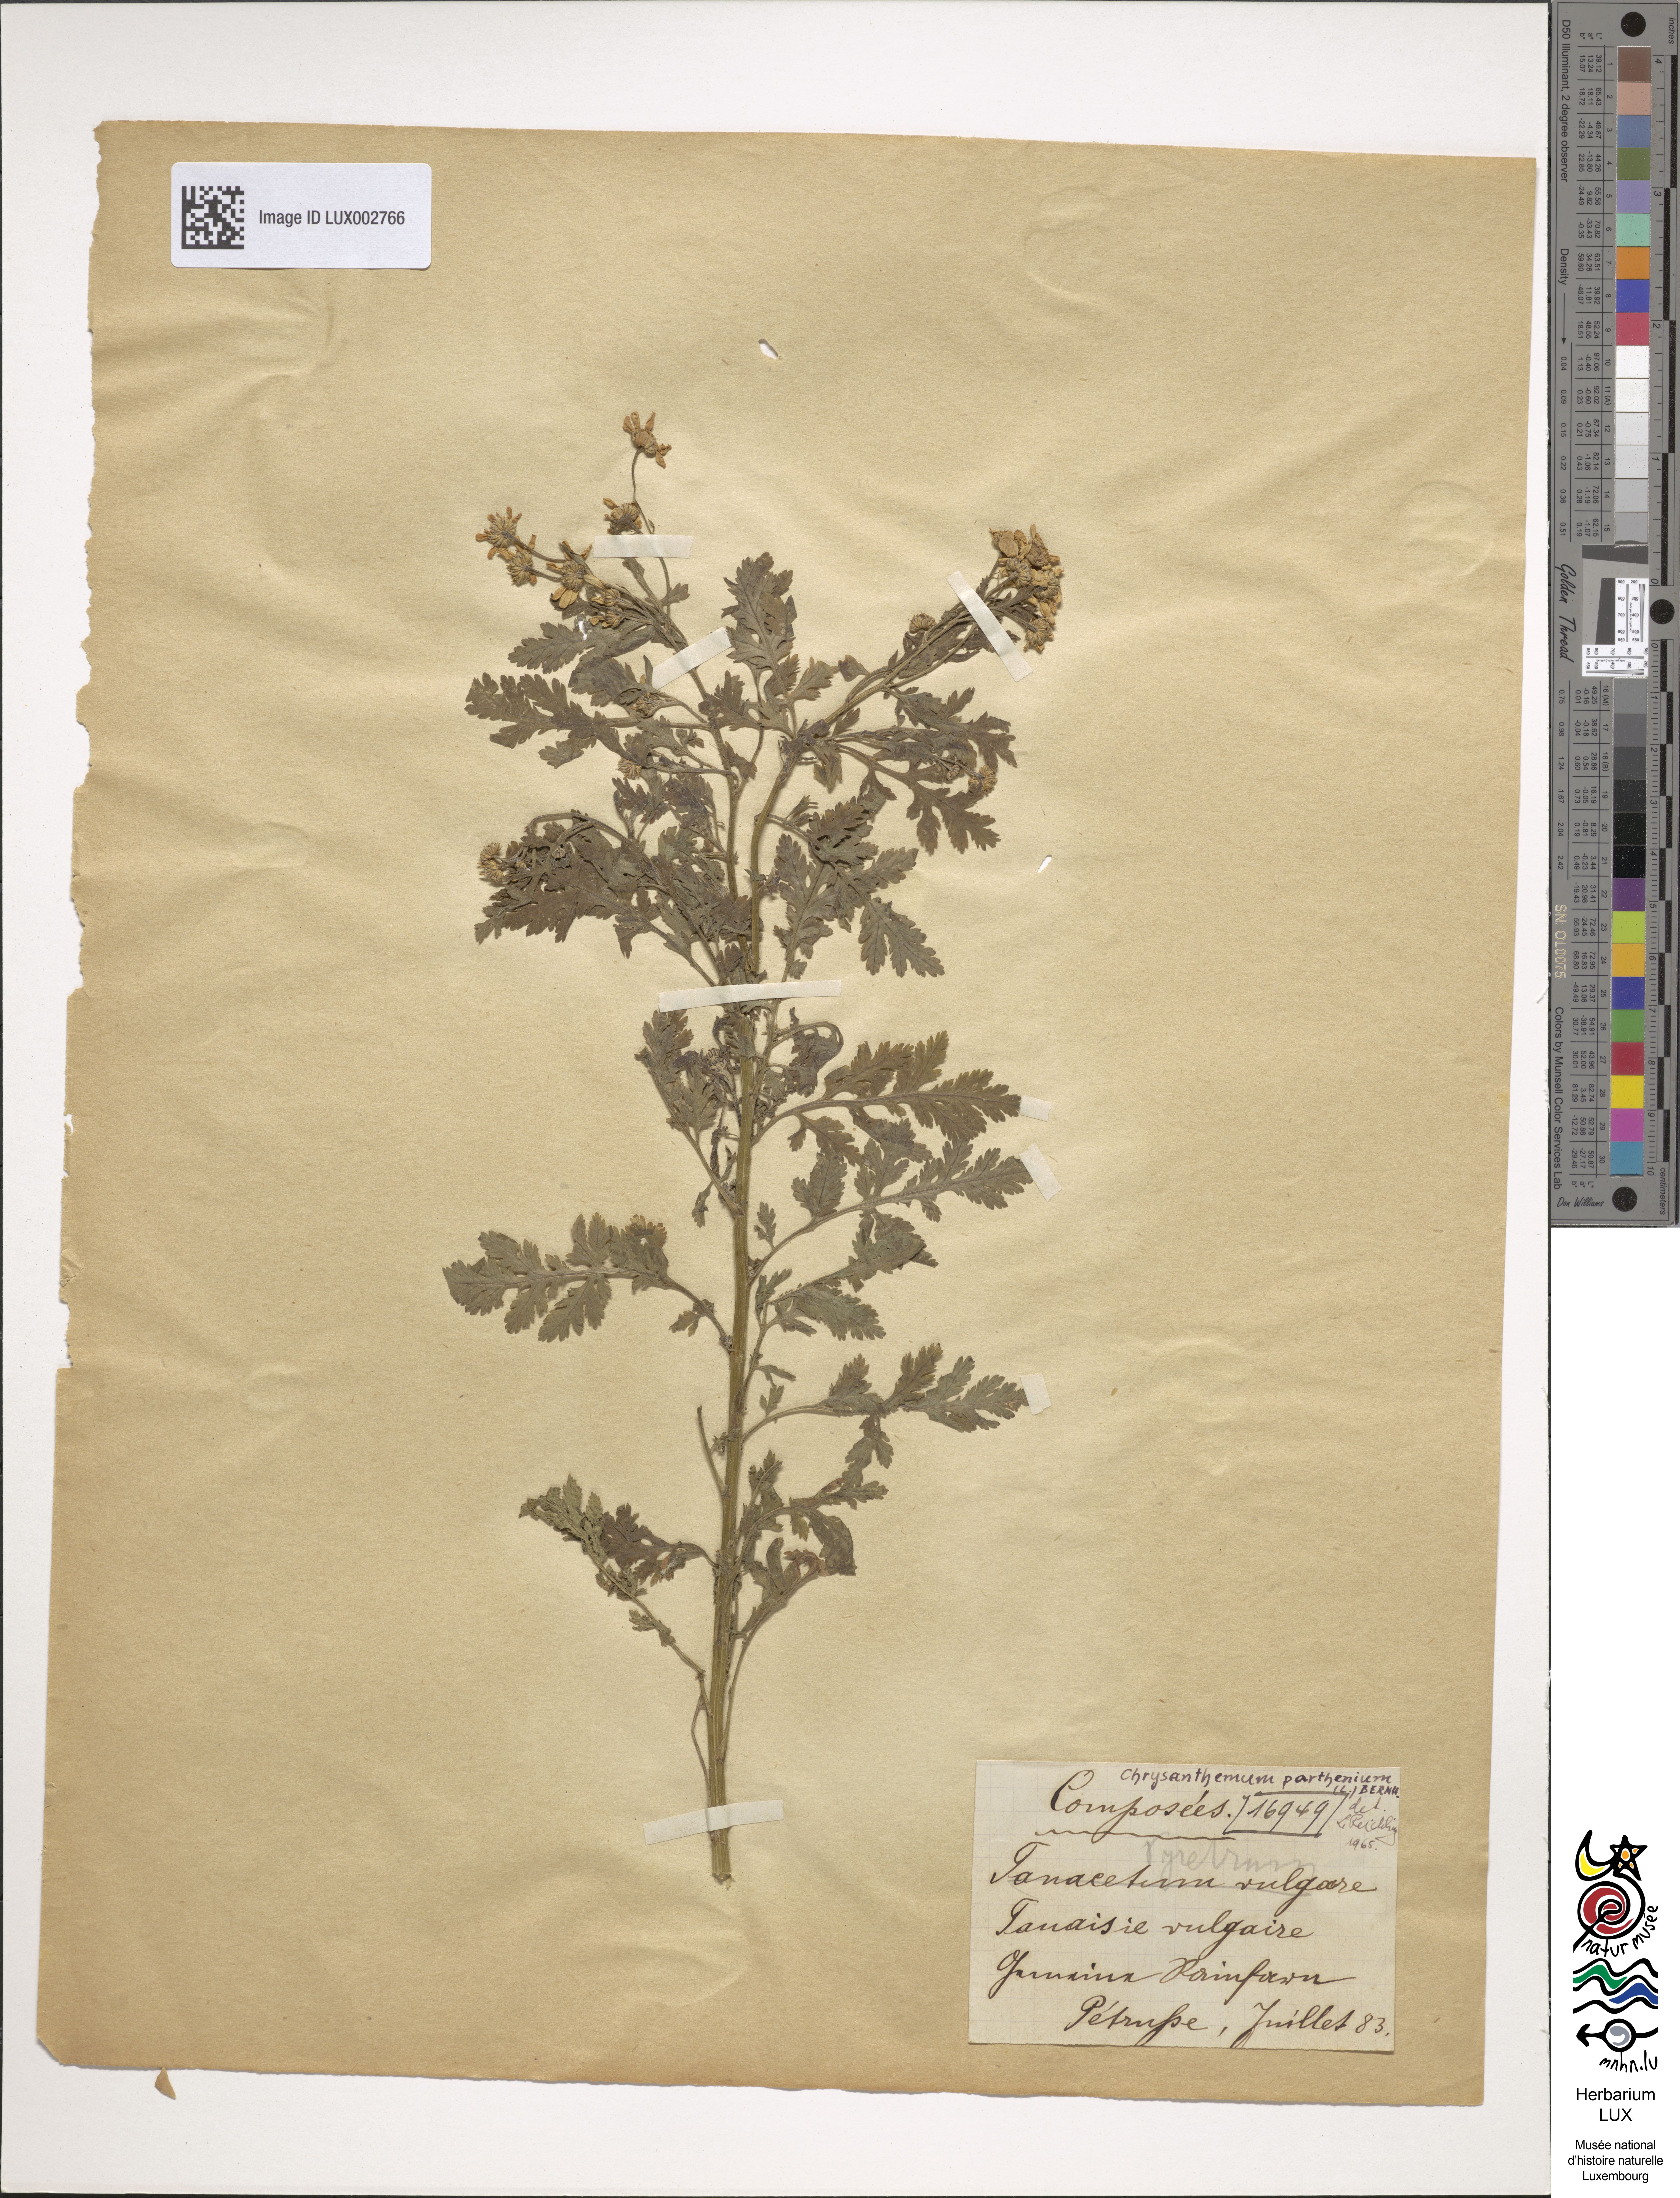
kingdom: Plantae
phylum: Tracheophyta
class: Magnoliopsida
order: Asterales
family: Asteraceae
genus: Tanacetum
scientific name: Tanacetum parthenium
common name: Feverfew
